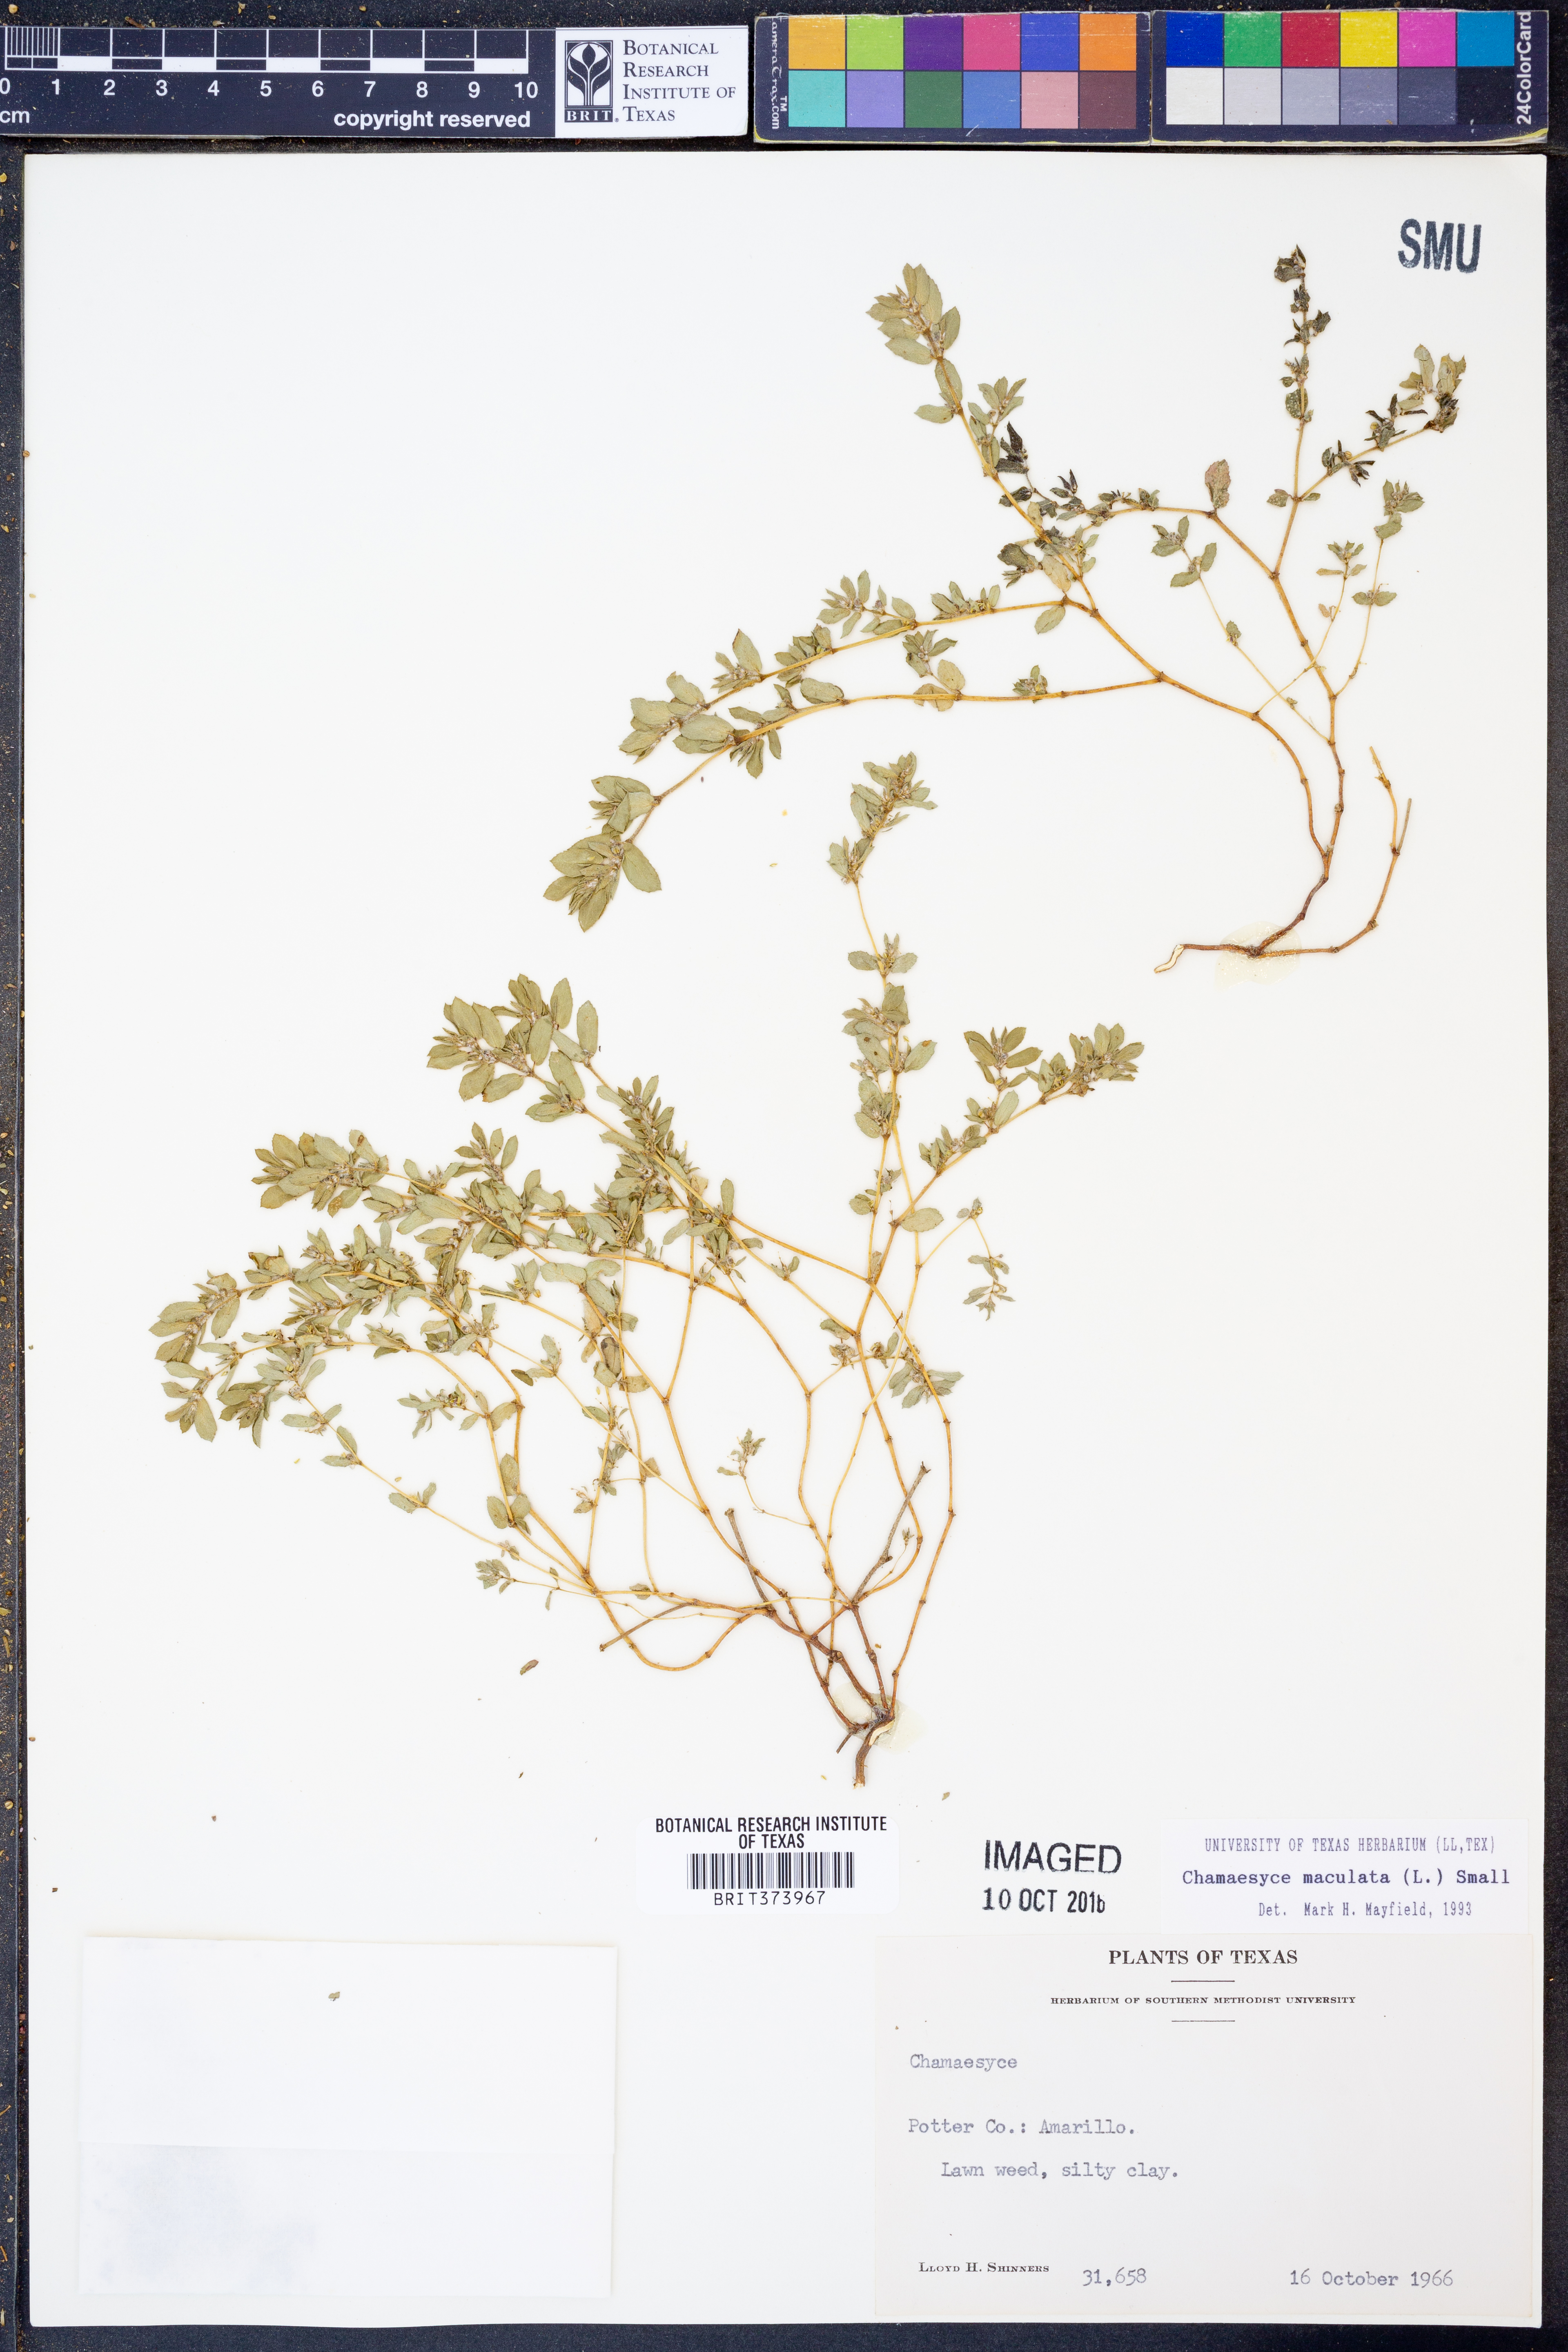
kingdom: Plantae
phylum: Tracheophyta
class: Magnoliopsida
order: Malpighiales
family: Euphorbiaceae
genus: Euphorbia
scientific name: Euphorbia maculata
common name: Spotted spurge
